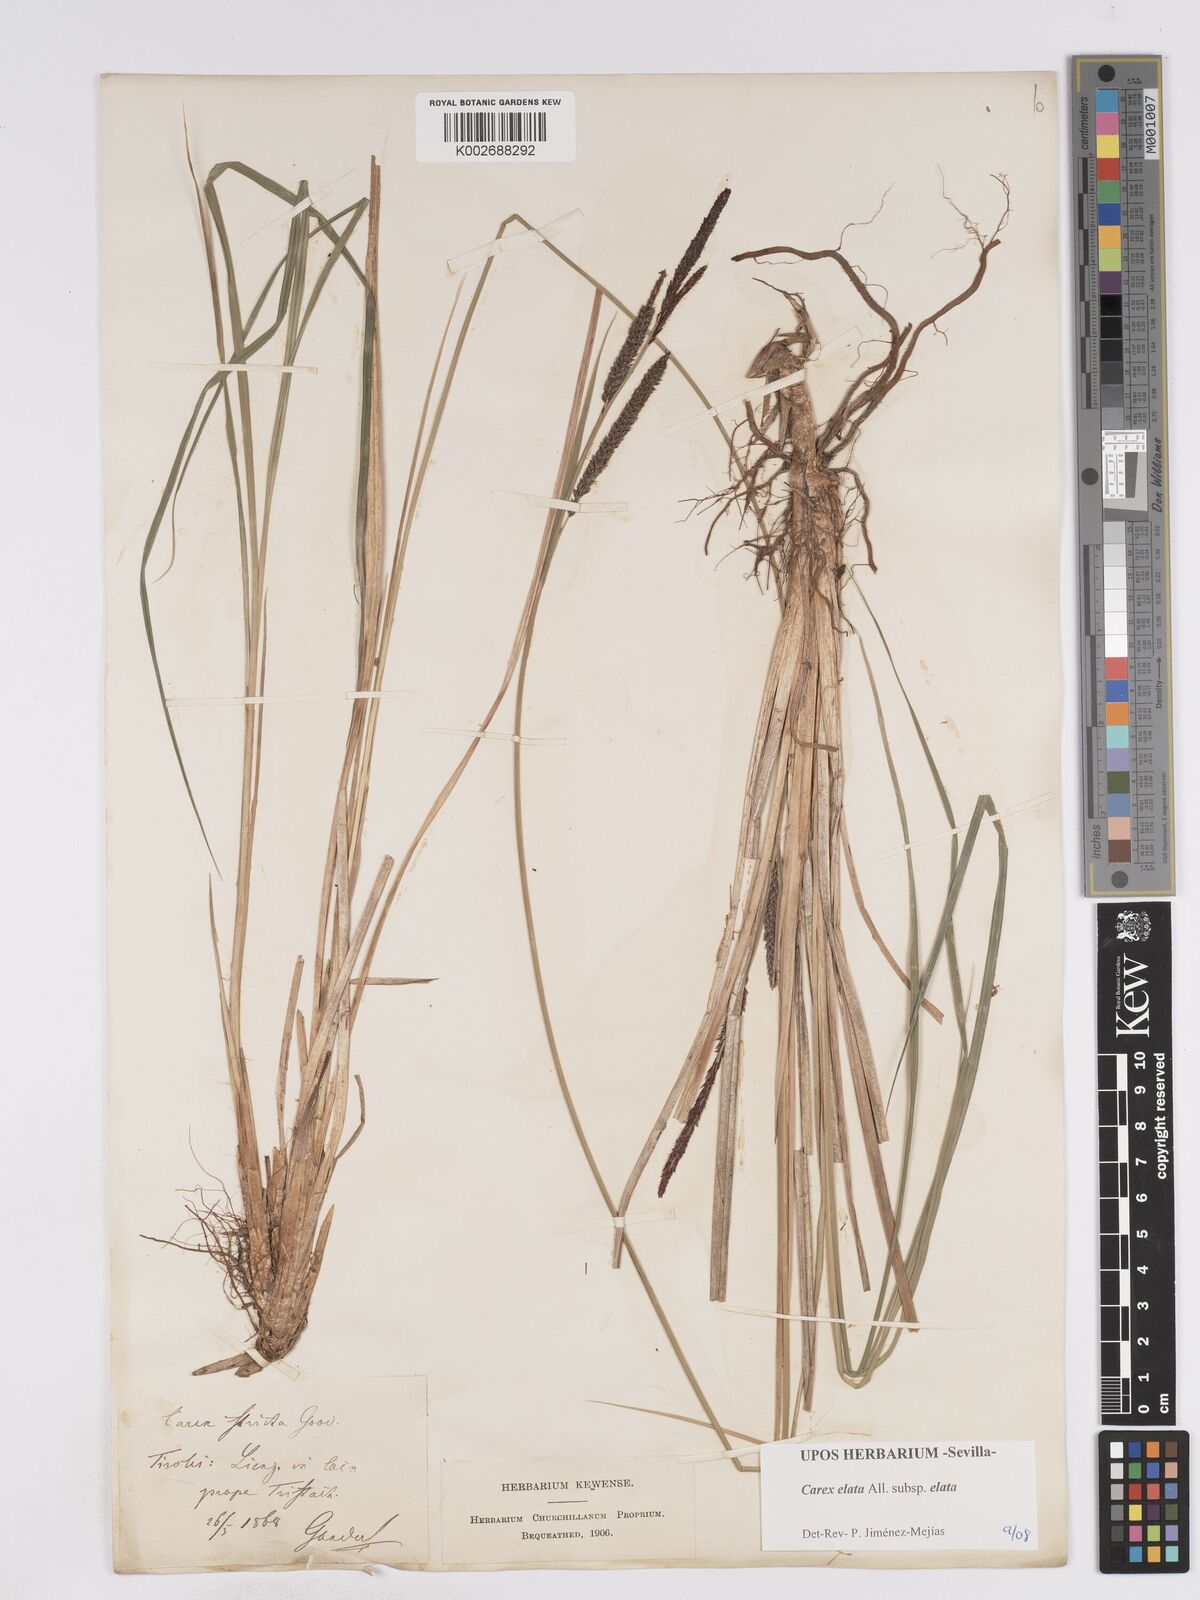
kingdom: Plantae
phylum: Tracheophyta
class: Liliopsida
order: Poales
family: Cyperaceae
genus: Carex
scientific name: Carex elata
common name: Tufted sedge
